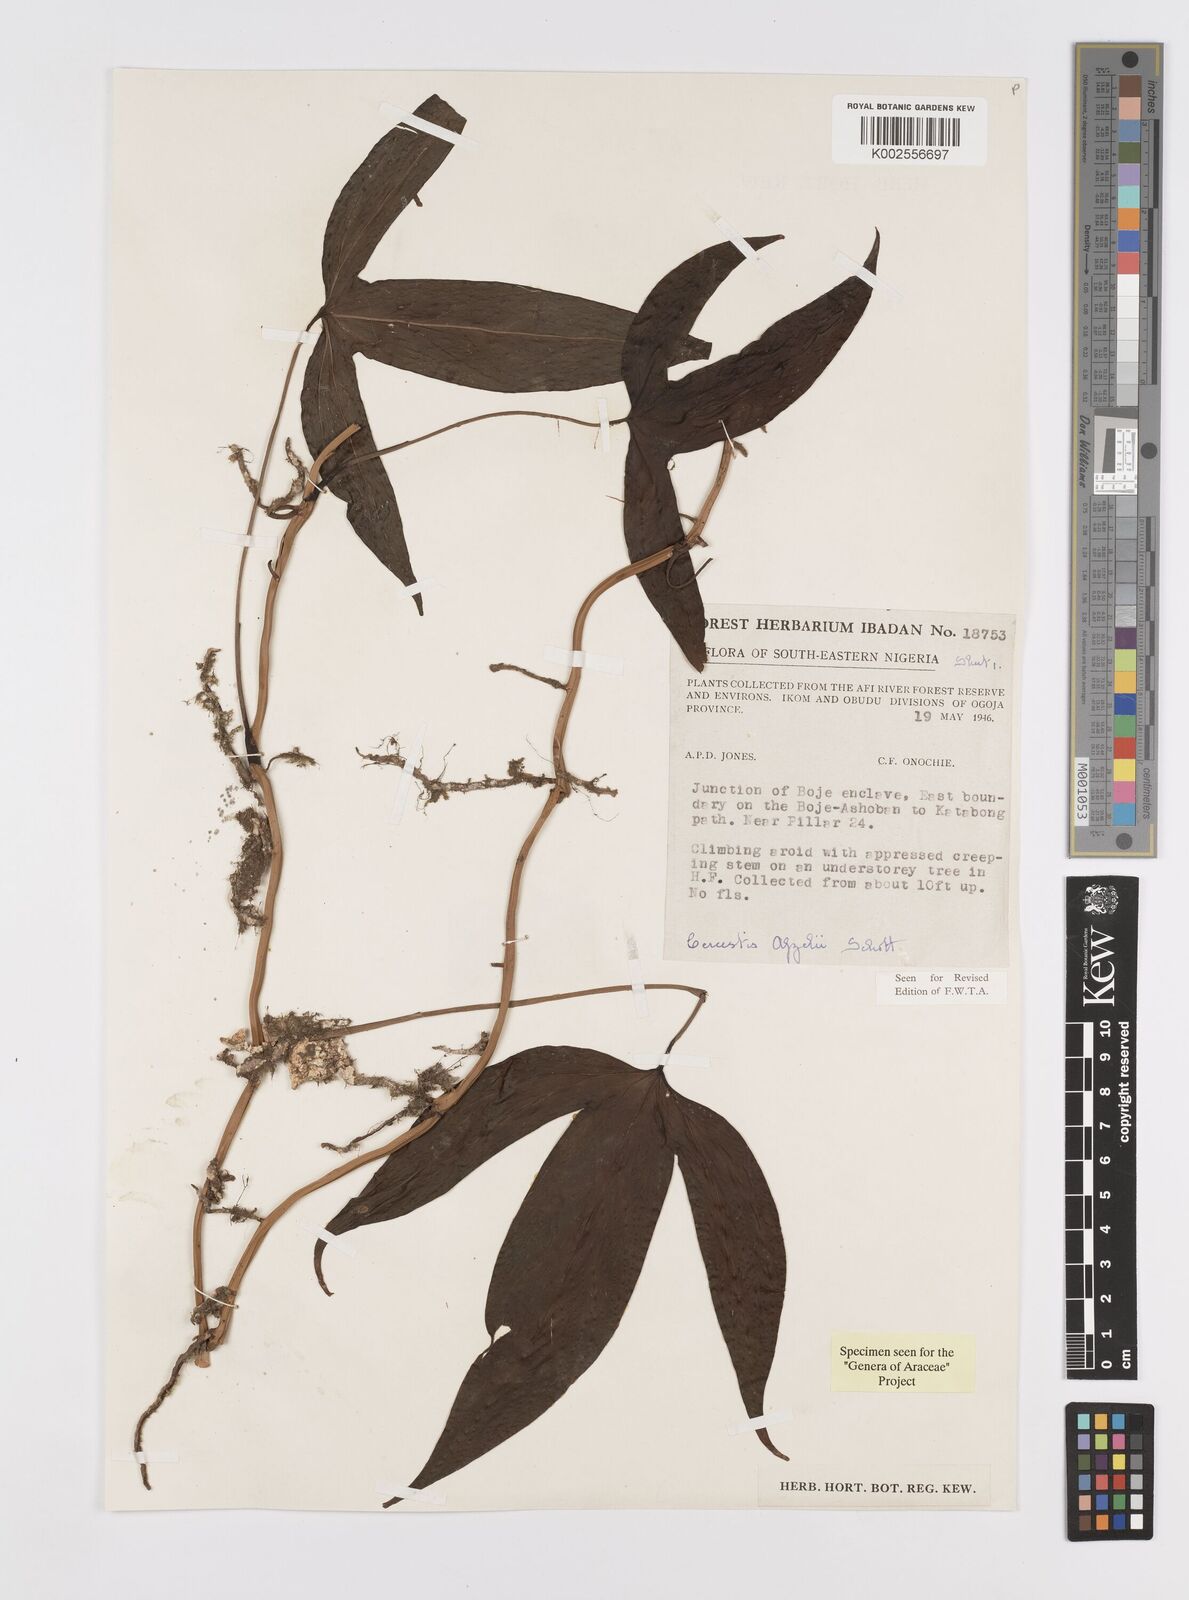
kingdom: Plantae
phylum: Tracheophyta
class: Liliopsida
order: Alismatales
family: Araceae
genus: Cercestis
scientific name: Cercestis afzelii
